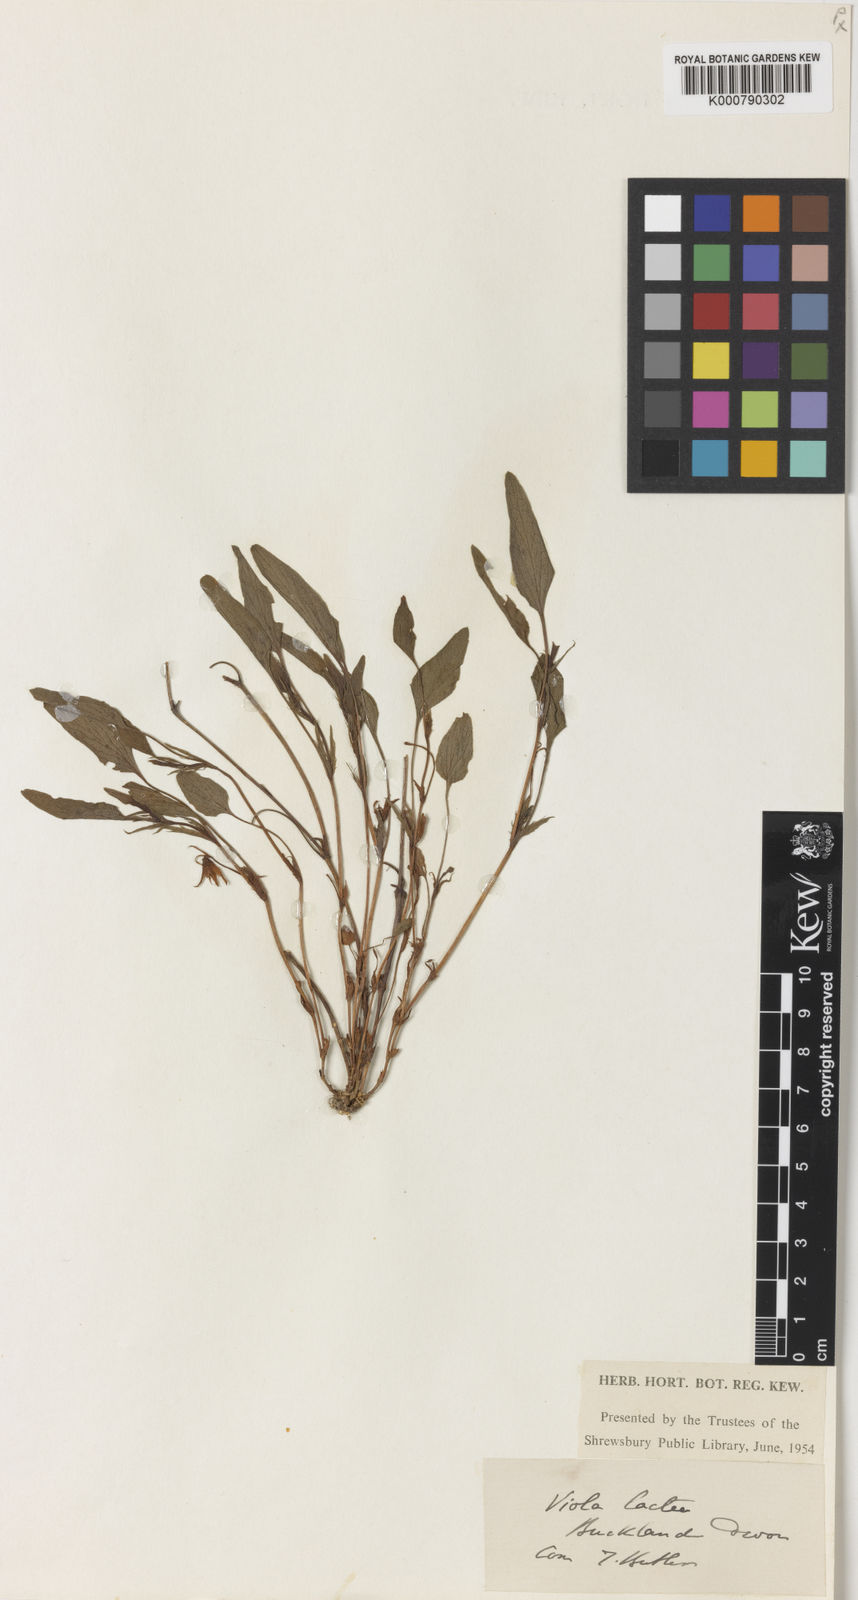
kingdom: Plantae
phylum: Tracheophyta
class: Magnoliopsida
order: Malpighiales
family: Violaceae
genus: Viola
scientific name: Viola lactea
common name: Pale dog-violet
